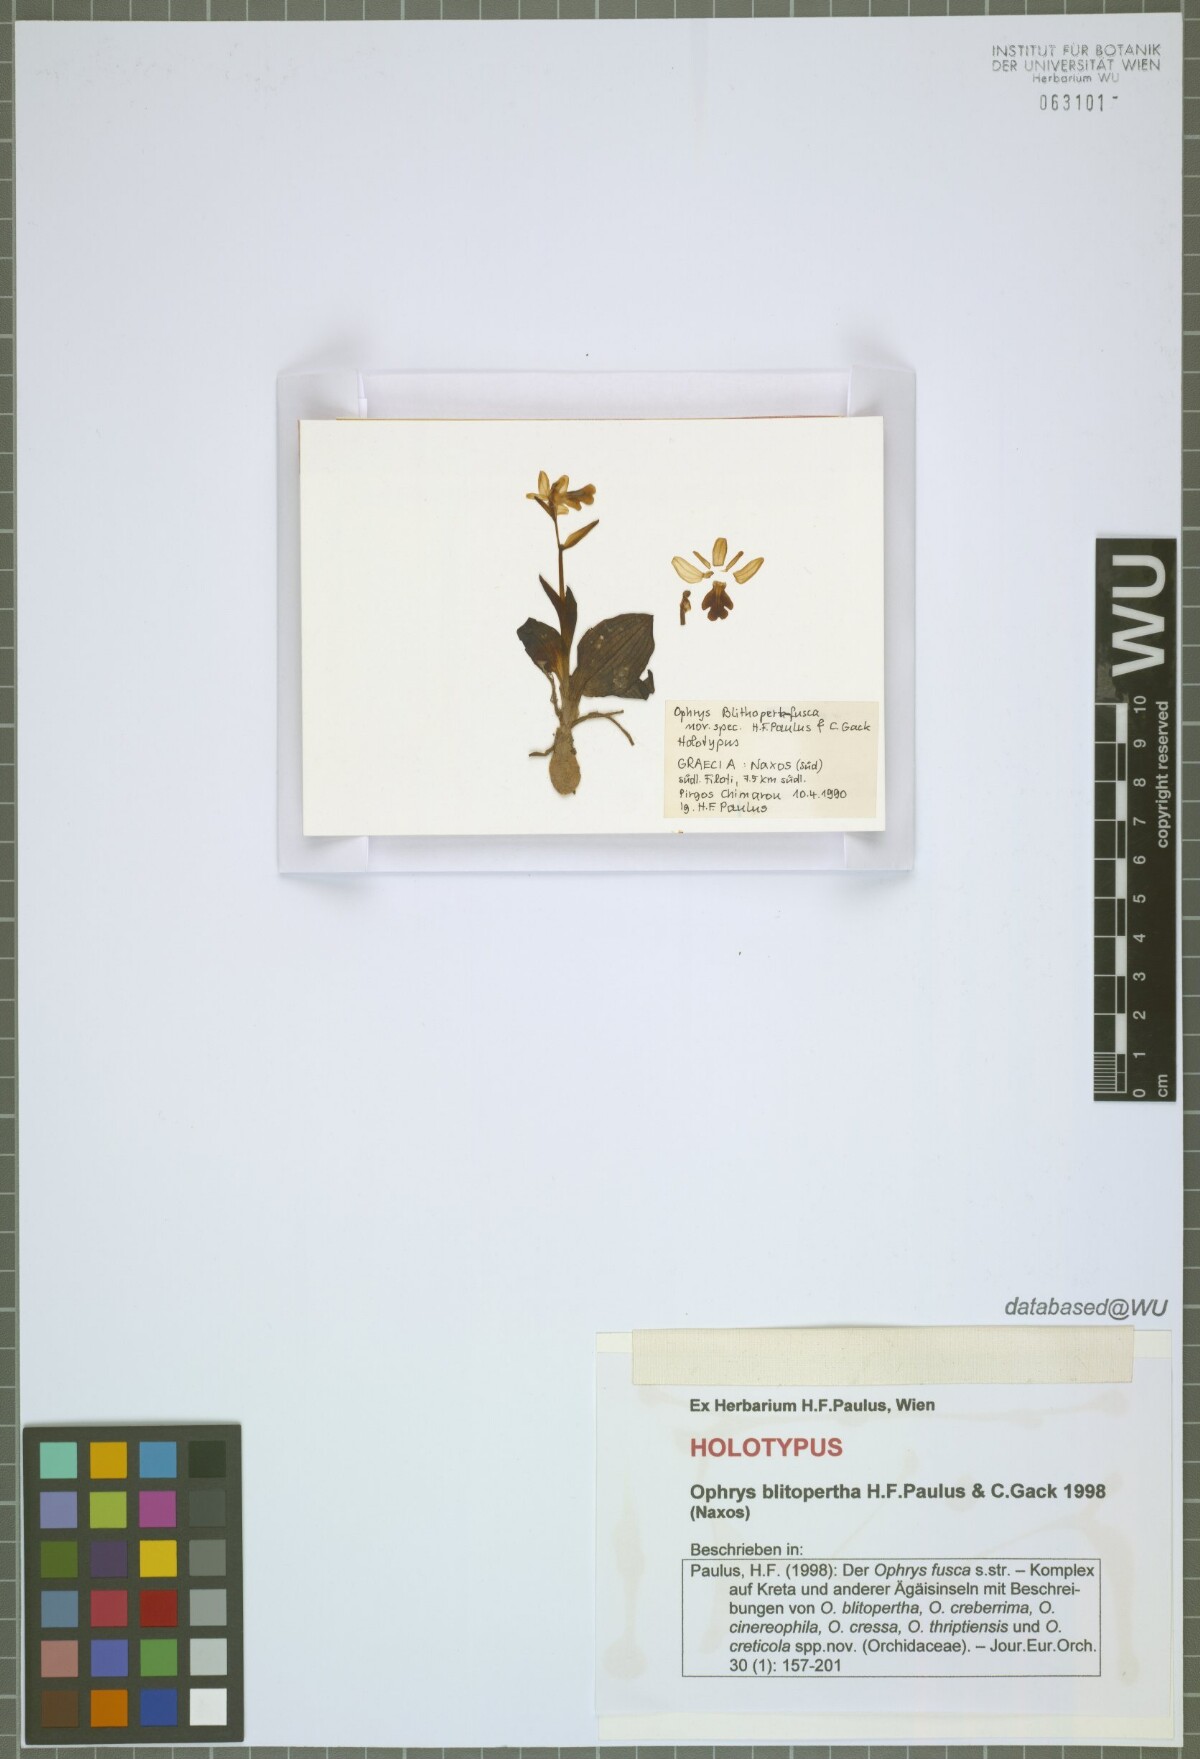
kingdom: Plantae
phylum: Tracheophyta
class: Liliopsida
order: Asparagales
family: Orchidaceae
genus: Ophrys
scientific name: Ophrys fusca
